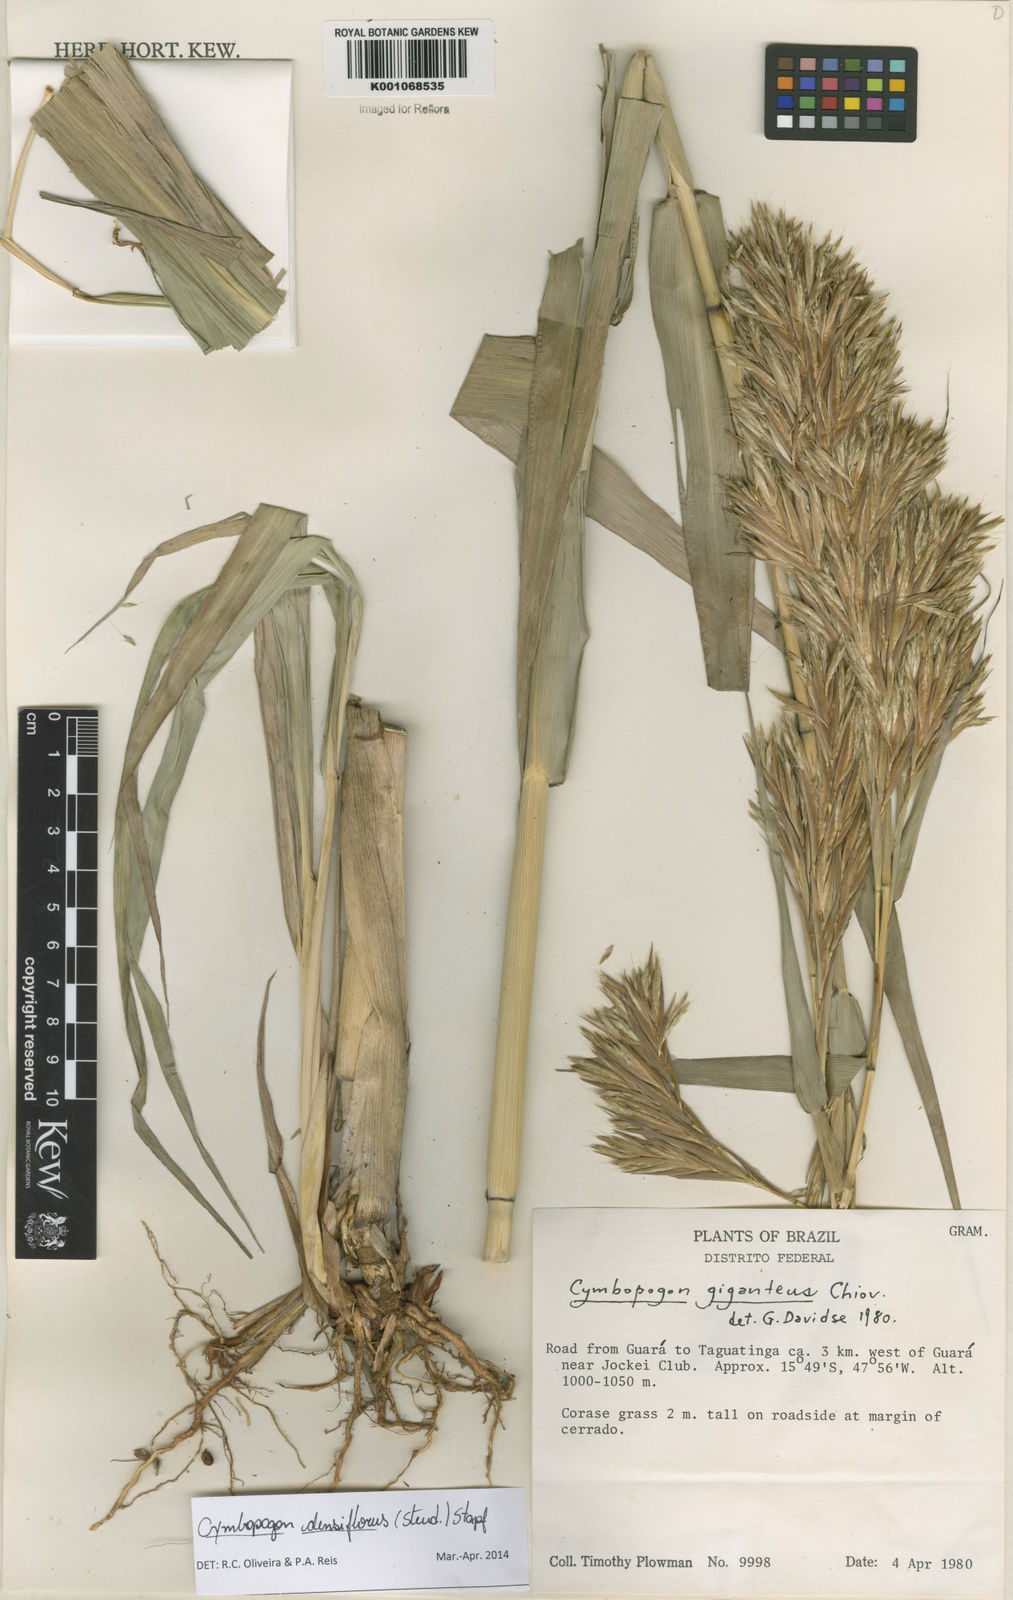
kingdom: Plantae
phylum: Tracheophyta
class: Liliopsida
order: Poales
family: Poaceae
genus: Cymbopogon
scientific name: Cymbopogon densiflorus
